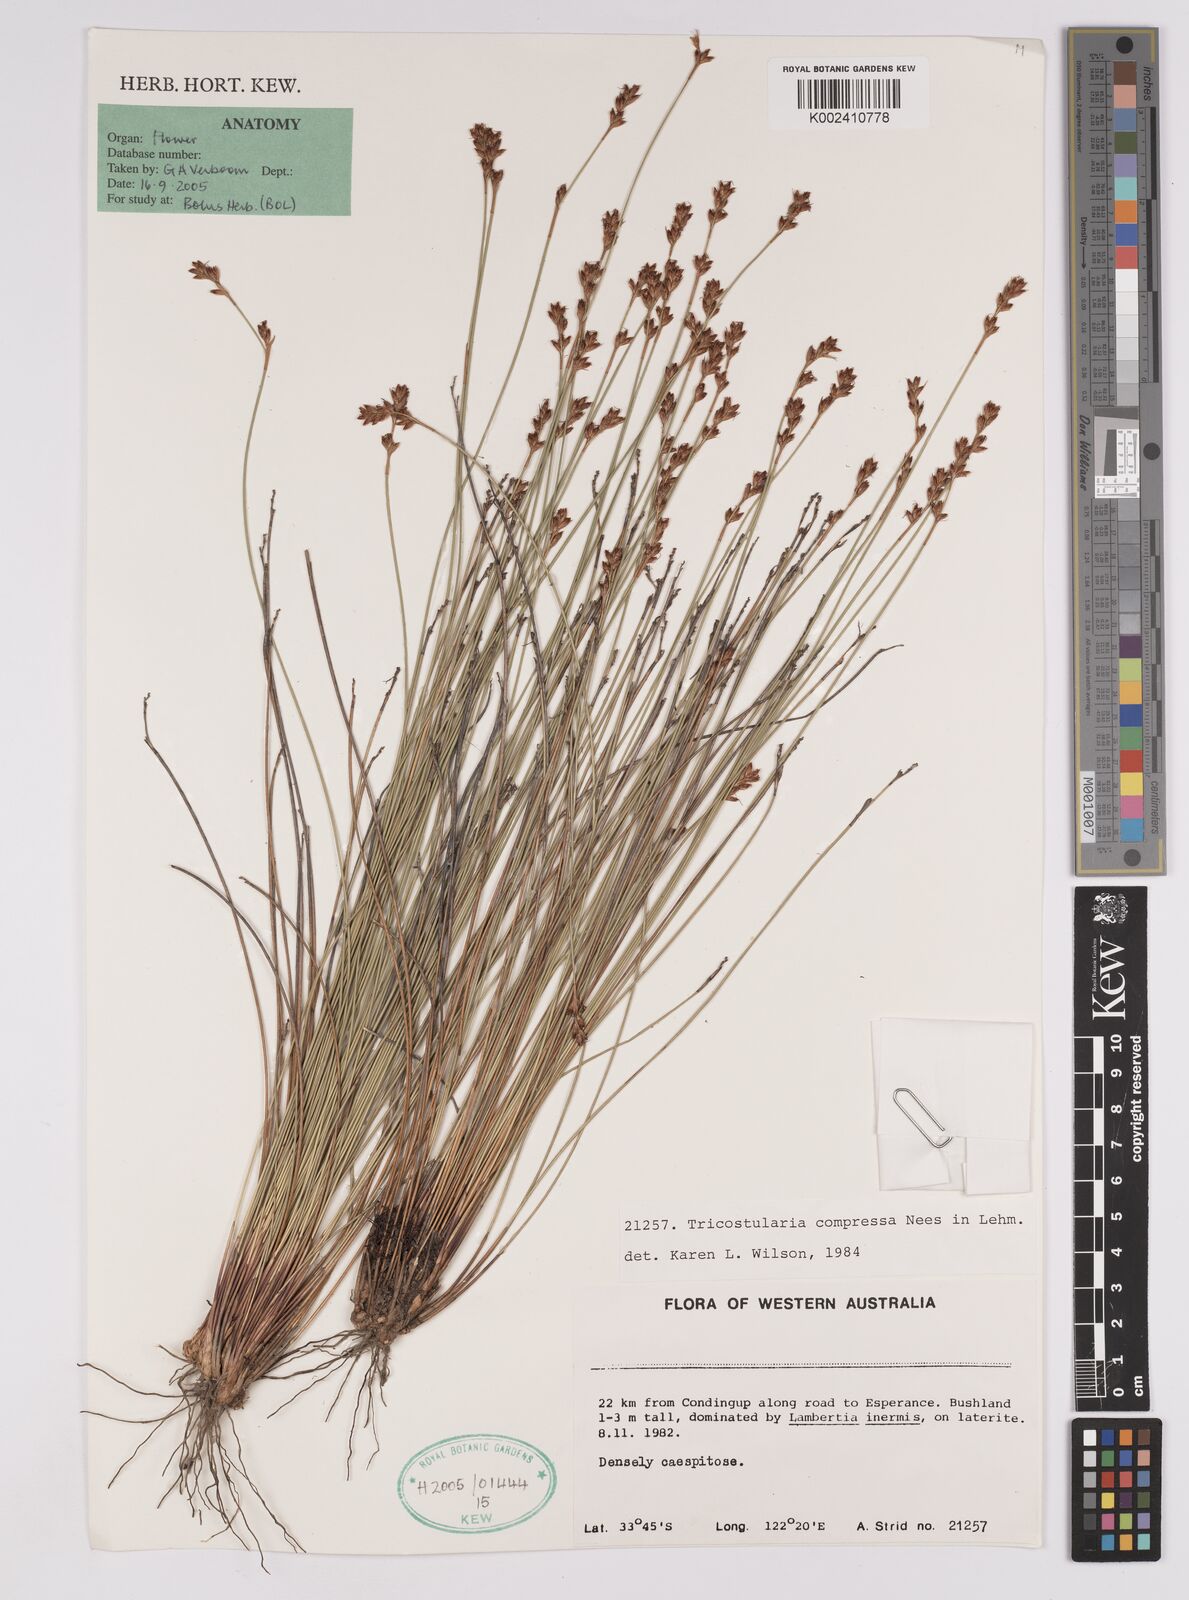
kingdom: Plantae
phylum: Tracheophyta
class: Liliopsida
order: Poales
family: Cyperaceae
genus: Tricostularia
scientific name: Tricostularia compressa
